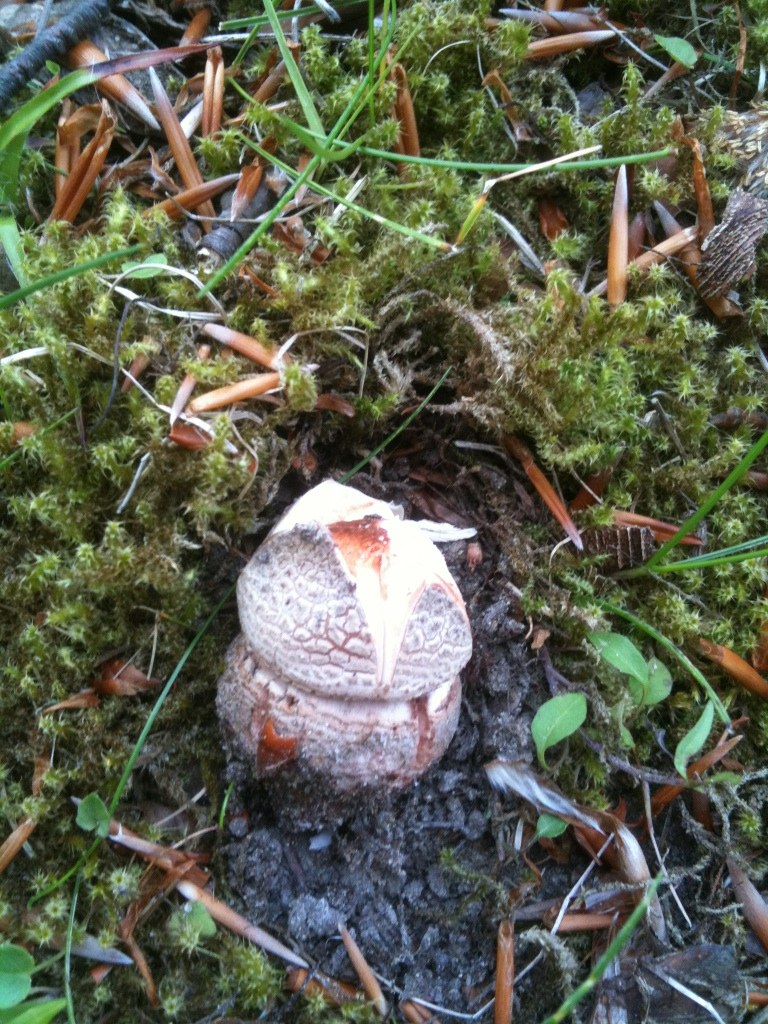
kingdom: Fungi
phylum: Basidiomycota
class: Agaricomycetes
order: Agaricales
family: Amanitaceae
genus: Amanita
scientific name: Amanita rubescens
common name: rødmende fluesvamp
